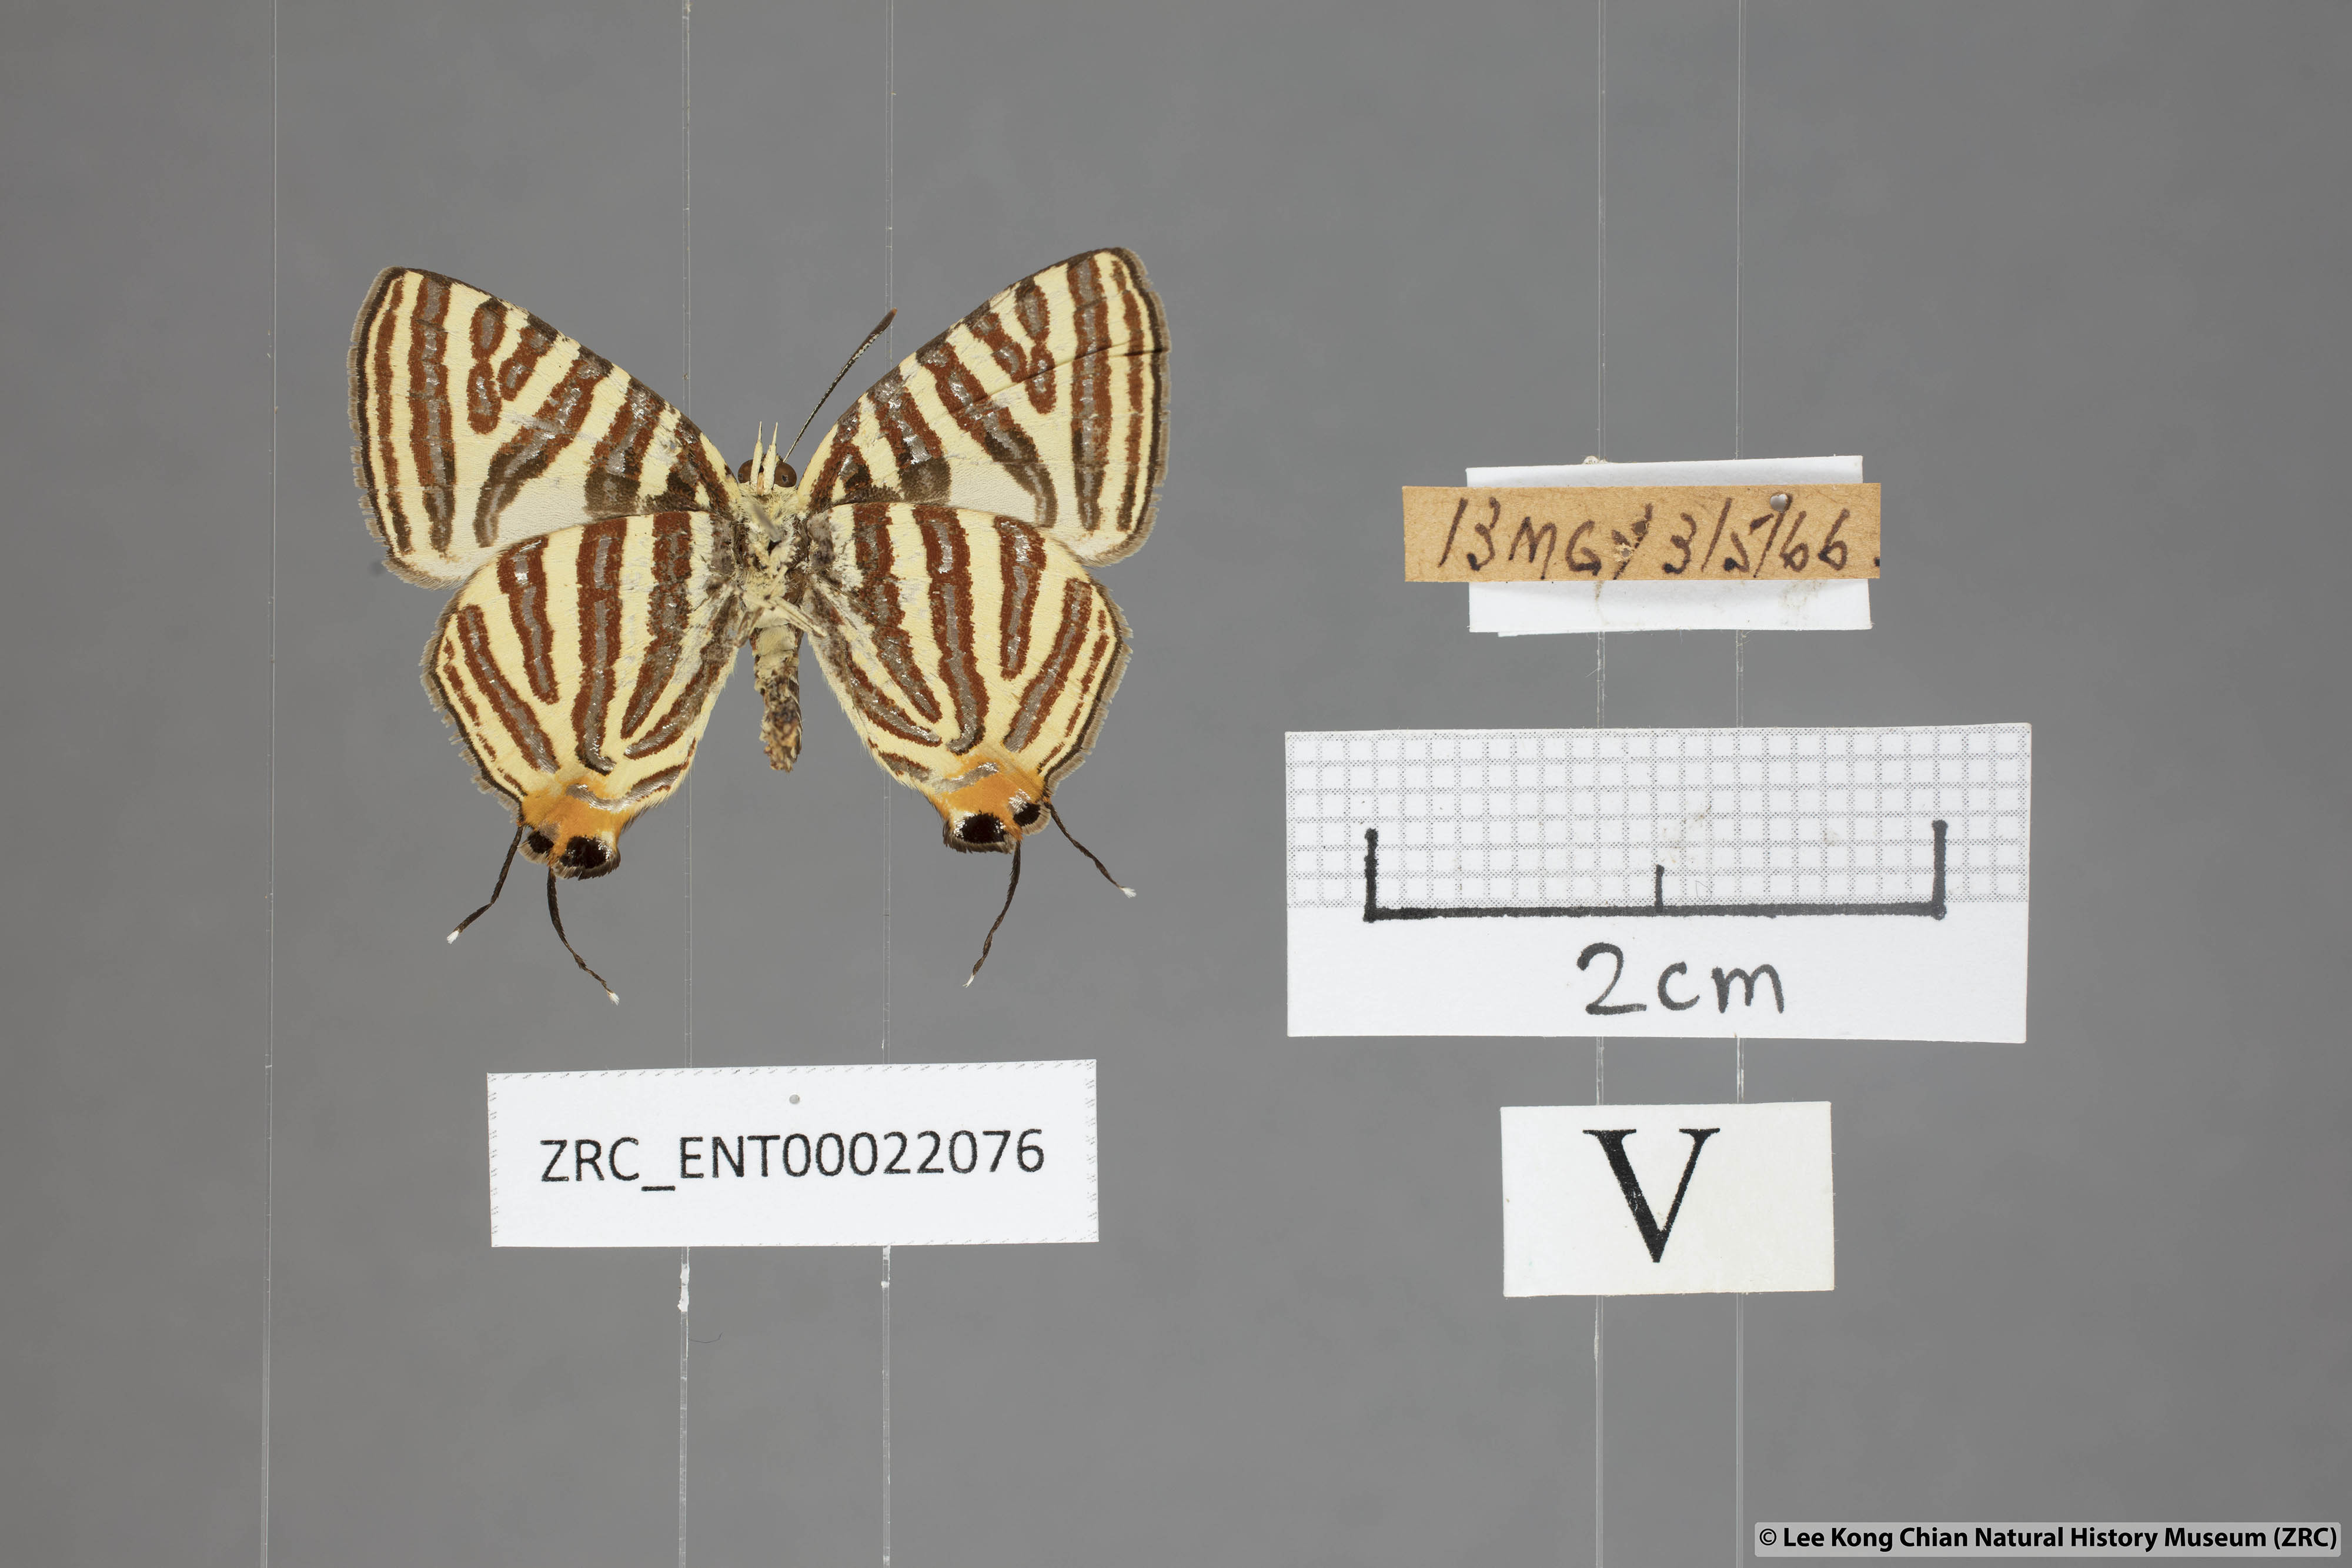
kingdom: Animalia
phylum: Arthropoda
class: Insecta
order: Lepidoptera
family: Lycaenidae
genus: Spindasis
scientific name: Spindasis lohita
